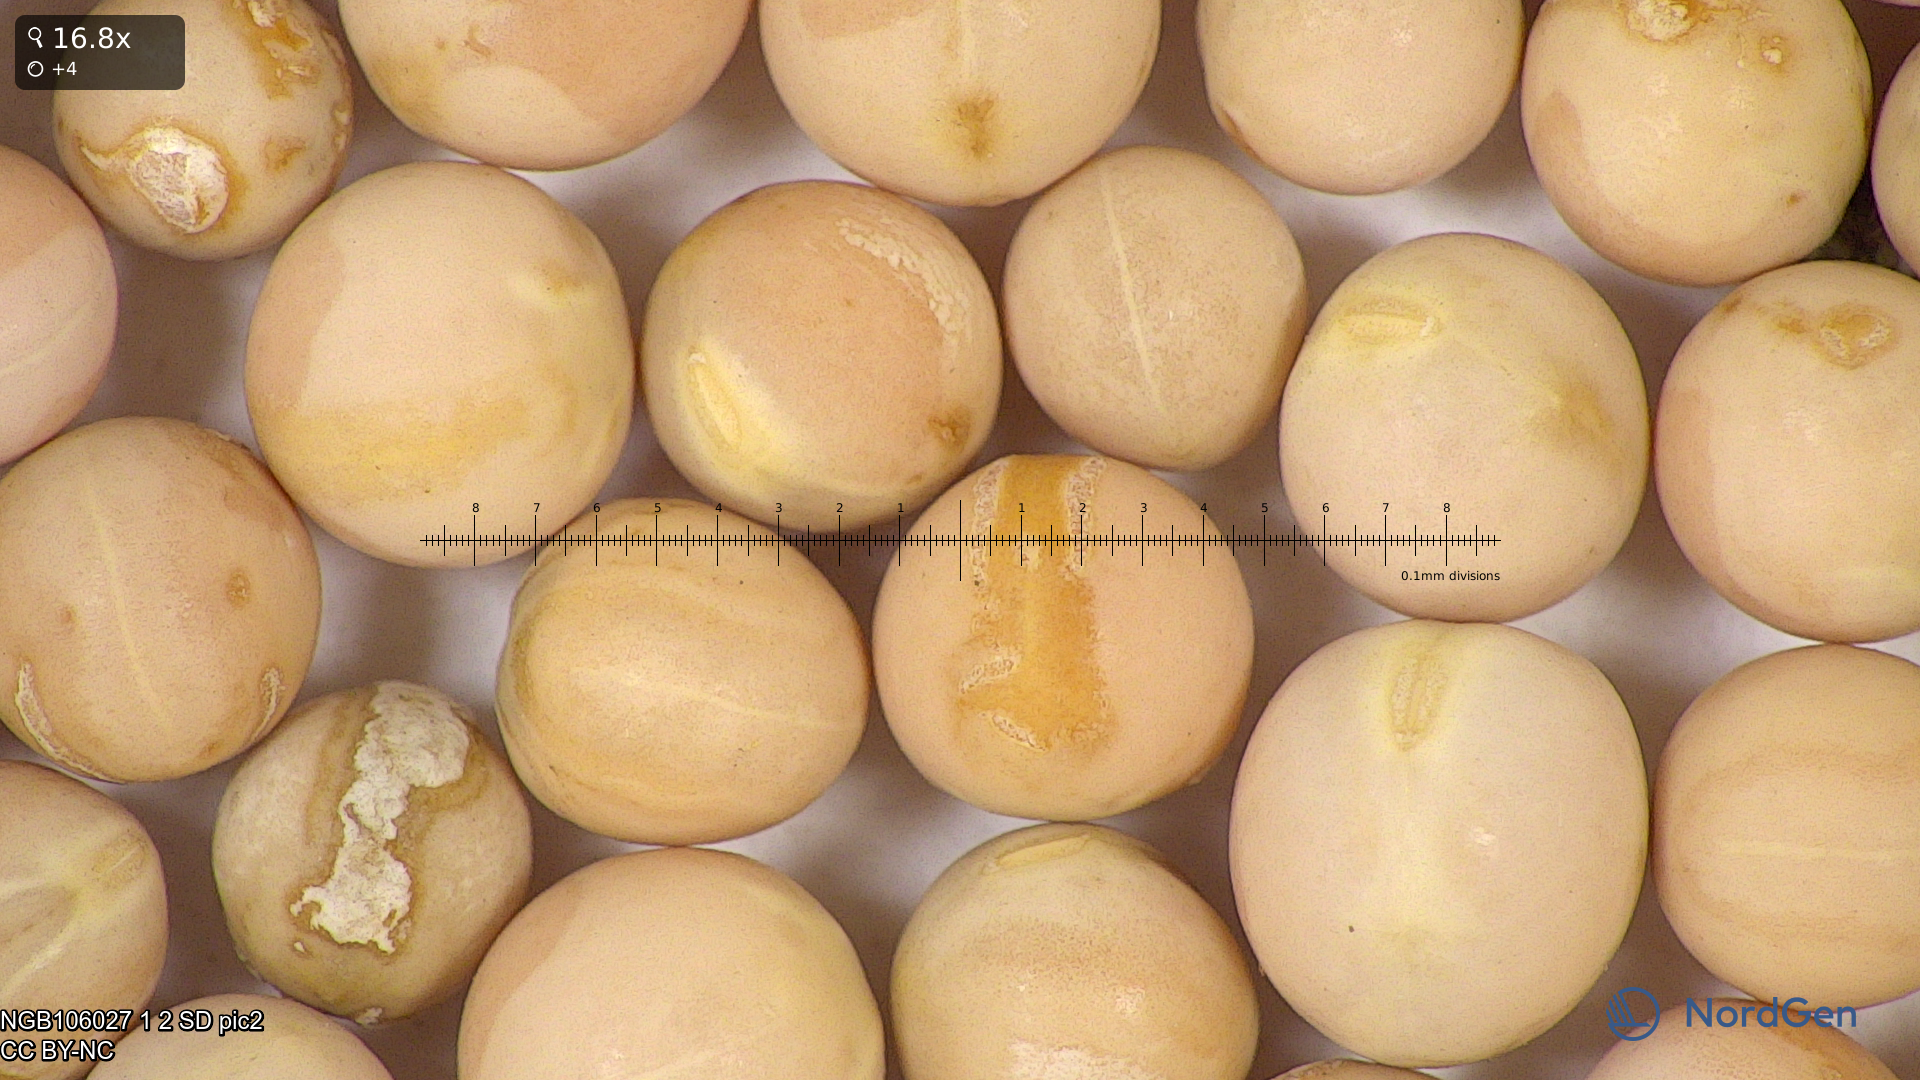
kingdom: Plantae
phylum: Tracheophyta
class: Magnoliopsida
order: Fabales
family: Fabaceae
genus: Lathyrus
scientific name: Lathyrus oleraceus
